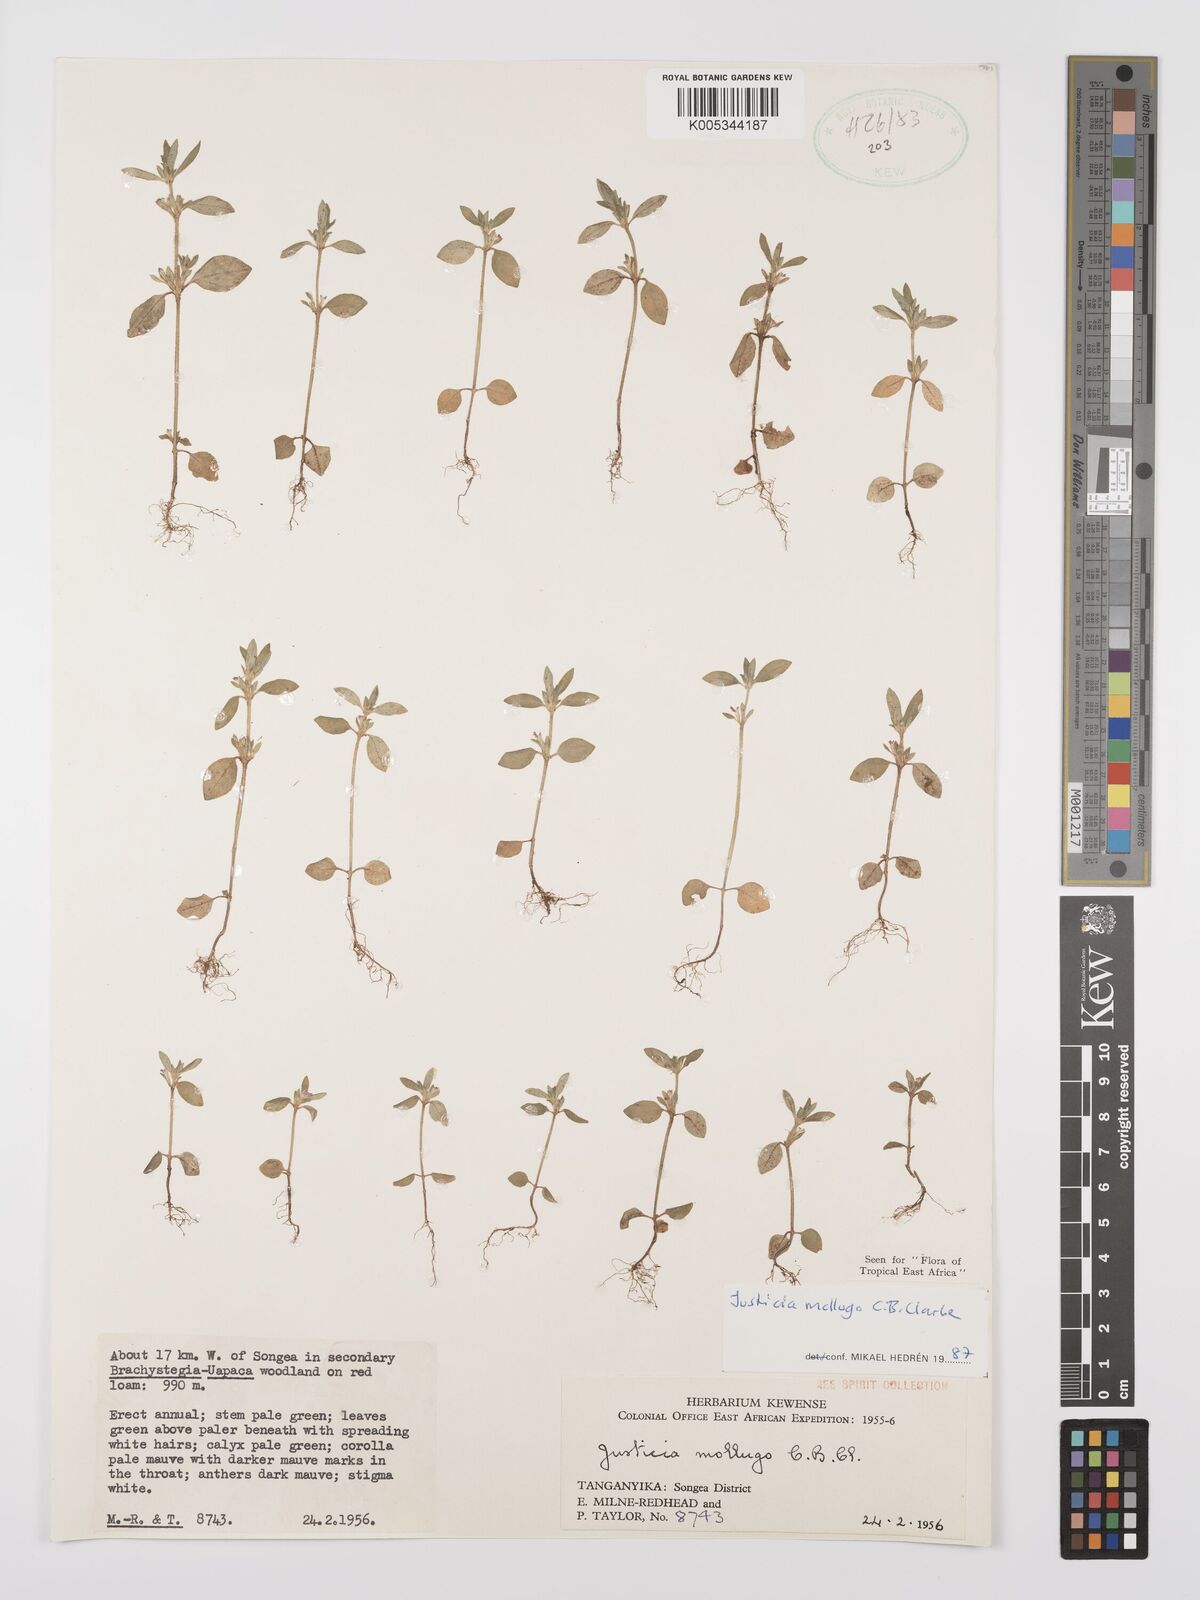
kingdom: Plantae
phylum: Tracheophyta
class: Magnoliopsida
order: Lamiales
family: Acanthaceae
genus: Justicia
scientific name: Justicia mollugo
